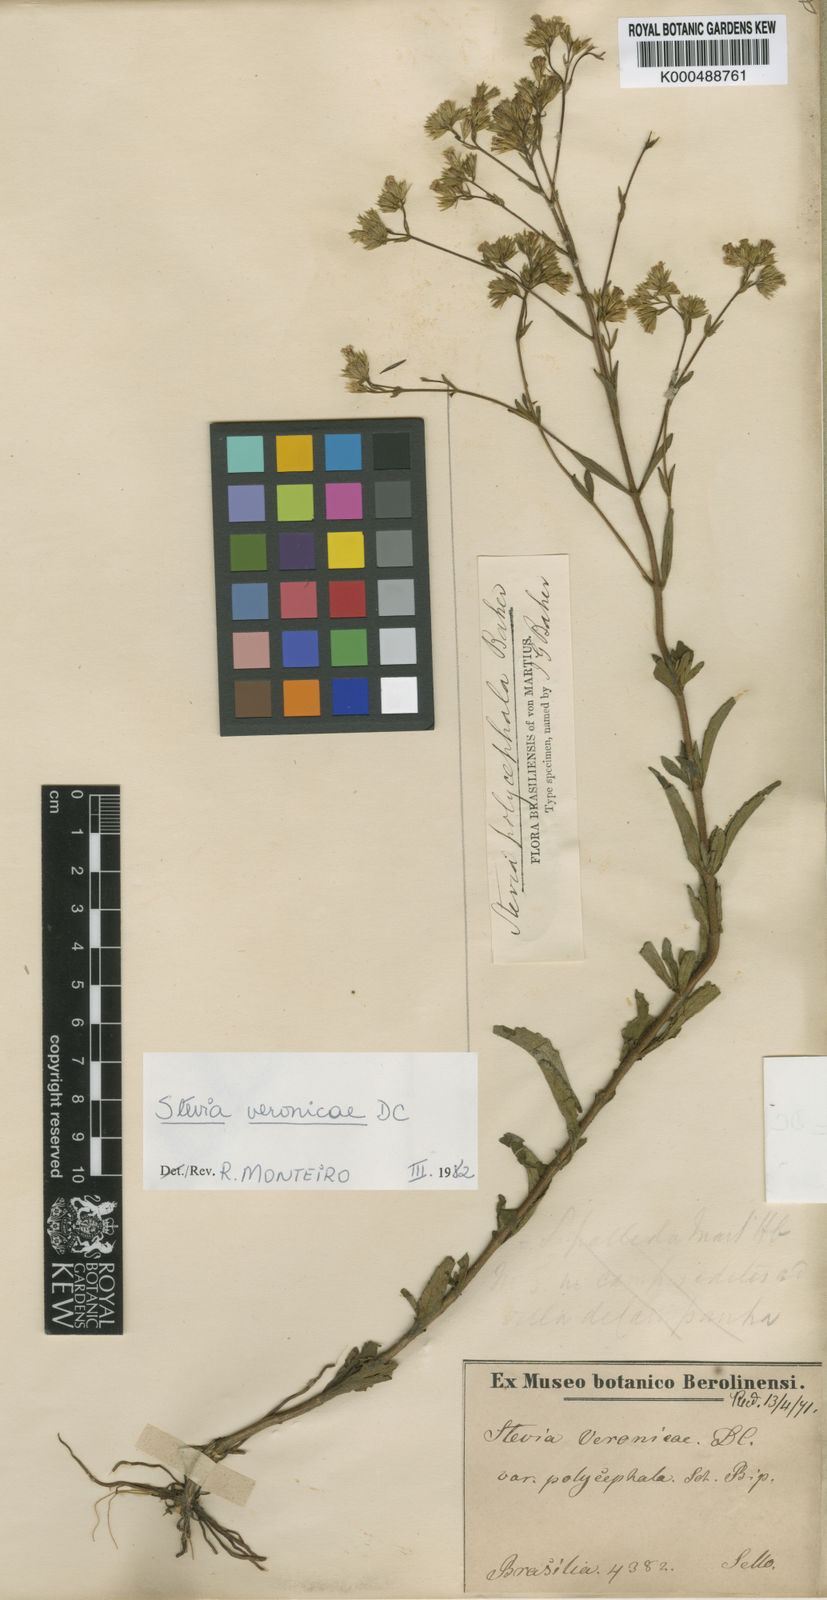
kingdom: Plantae
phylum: Tracheophyta
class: Magnoliopsida
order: Asterales
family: Asteraceae
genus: Stevia
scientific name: Stevia
